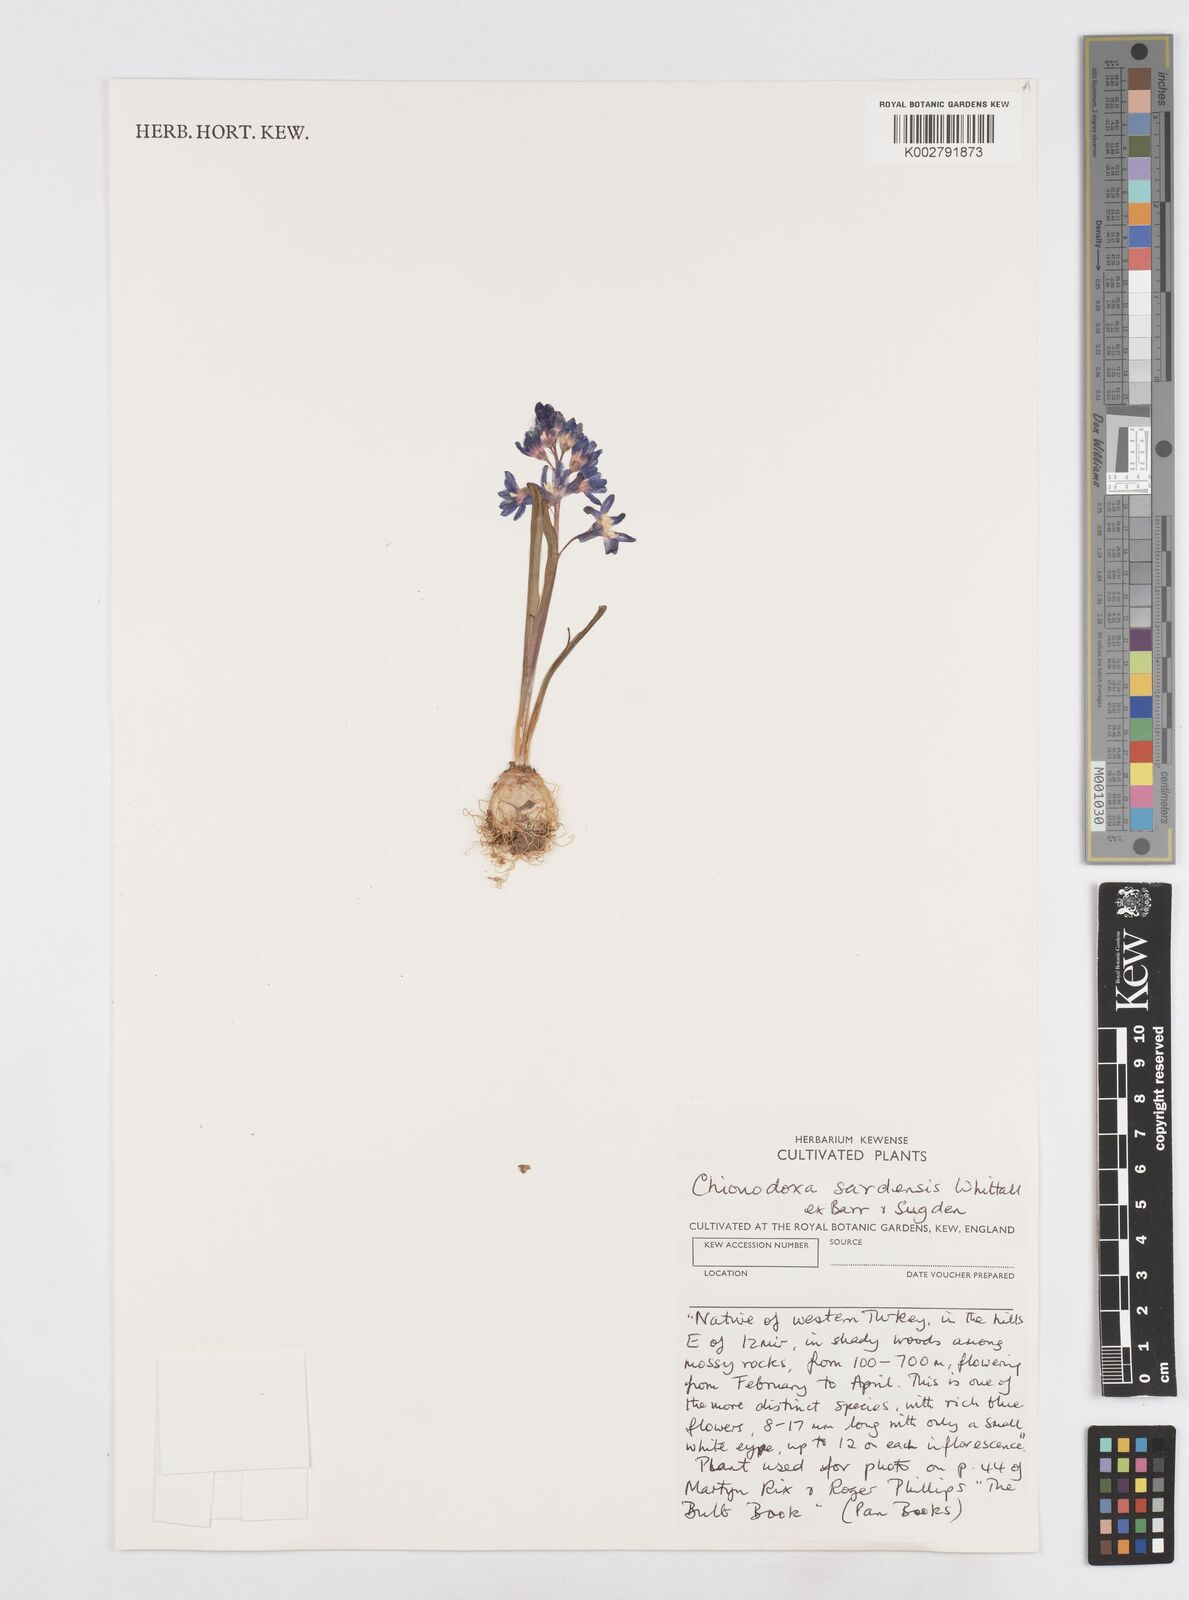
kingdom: Plantae
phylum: Tracheophyta
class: Liliopsida
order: Asparagales
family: Asparagaceae
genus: Scilla
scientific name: Scilla sardensis
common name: Lesser glory-of-the-snow
